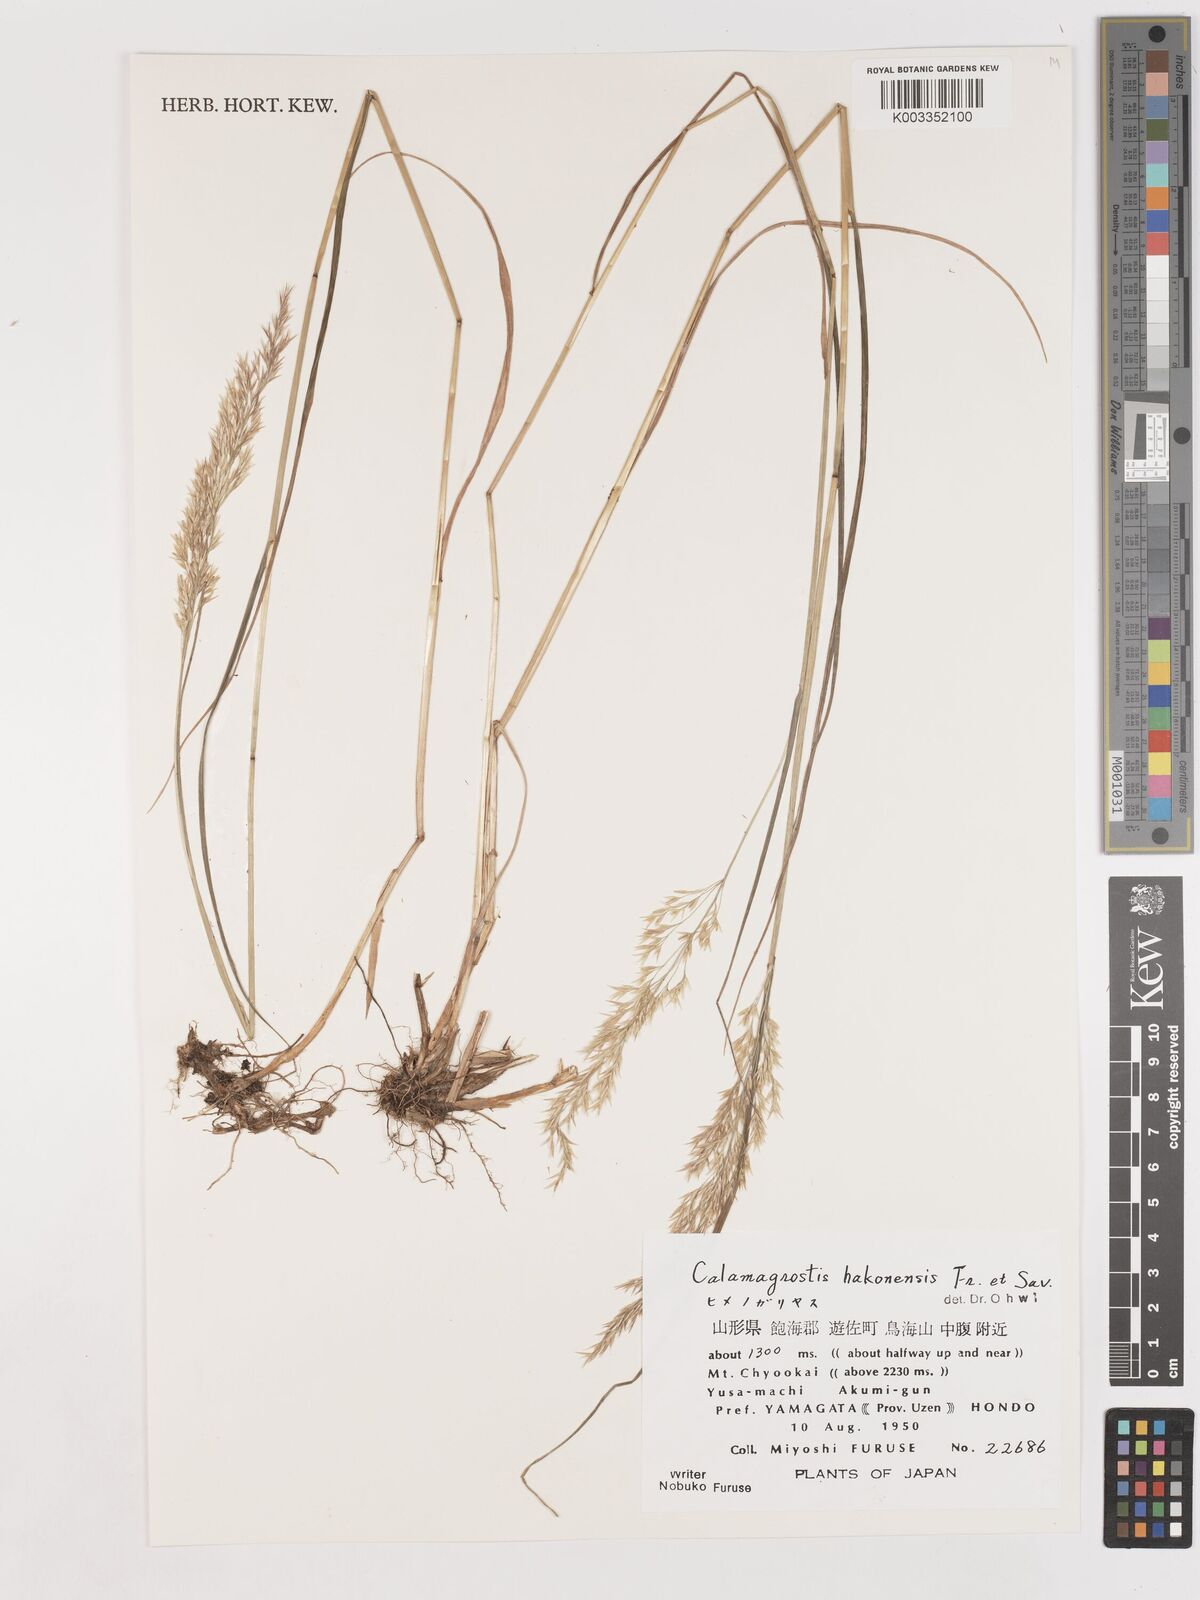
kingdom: Plantae
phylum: Tracheophyta
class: Liliopsida
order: Poales
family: Poaceae
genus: Calamagrostis
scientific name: Calamagrostis hakonensis
